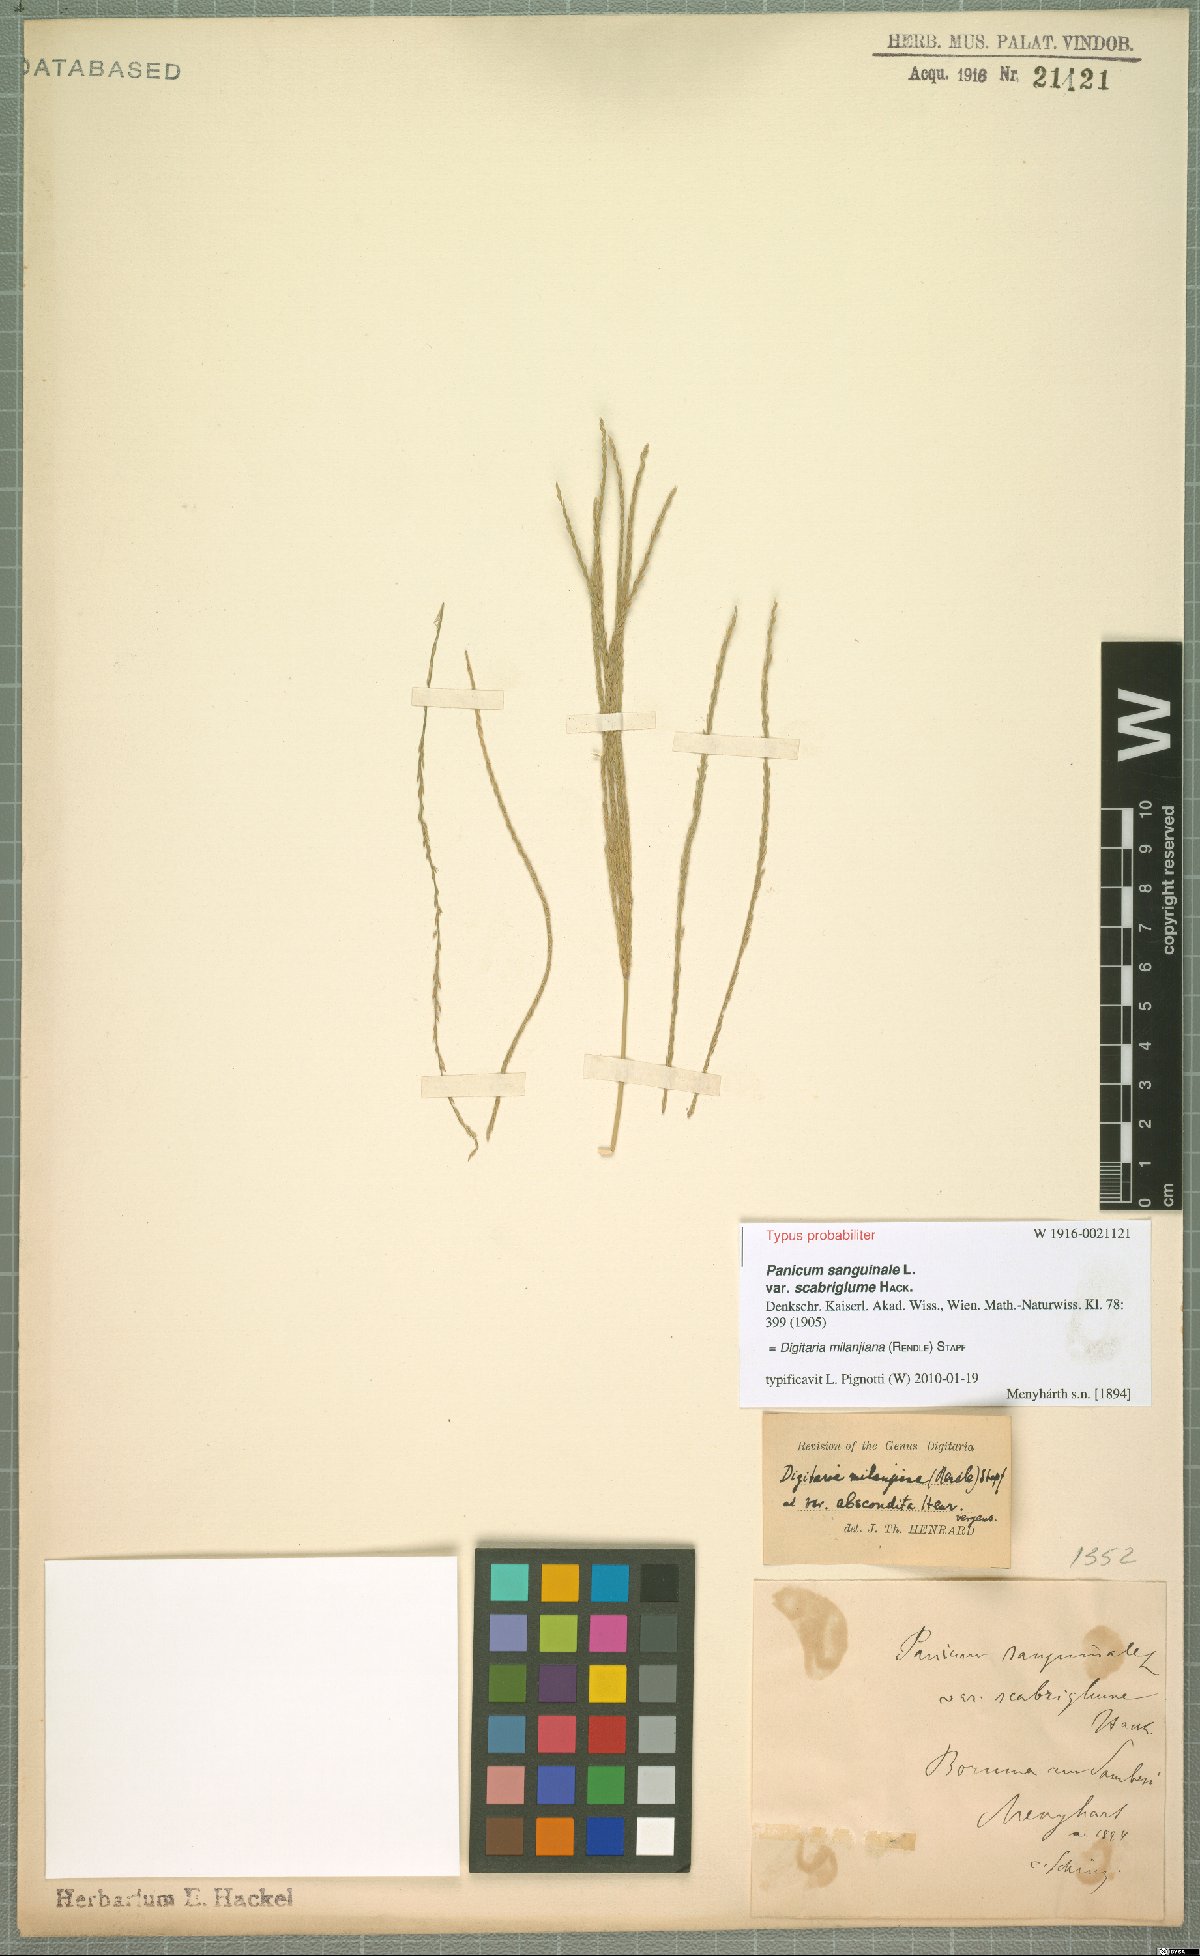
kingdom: Plantae
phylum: Tracheophyta
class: Liliopsida
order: Poales
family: Poaceae
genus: Digitaria
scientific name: Digitaria milanjiana
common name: Madagascar crabgrass
